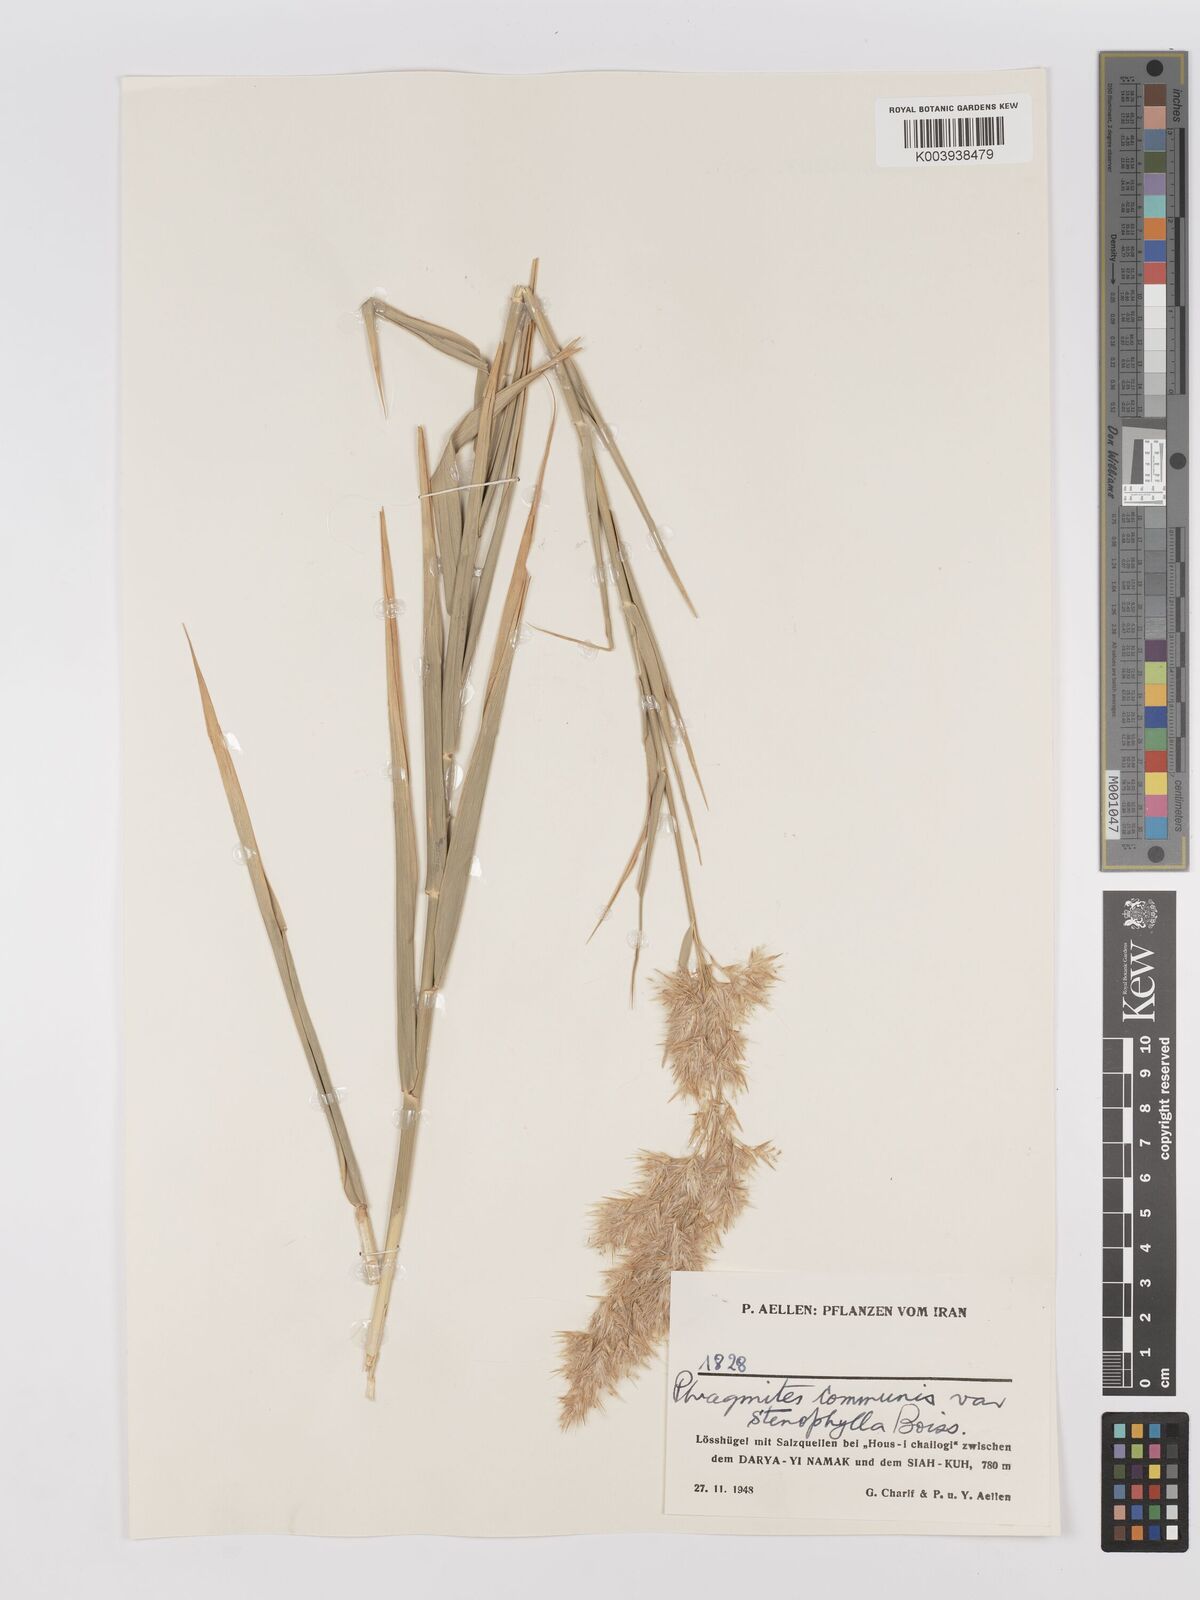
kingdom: Plantae
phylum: Tracheophyta
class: Liliopsida
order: Poales
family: Poaceae
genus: Phragmites
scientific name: Phragmites australis
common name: Common reed
